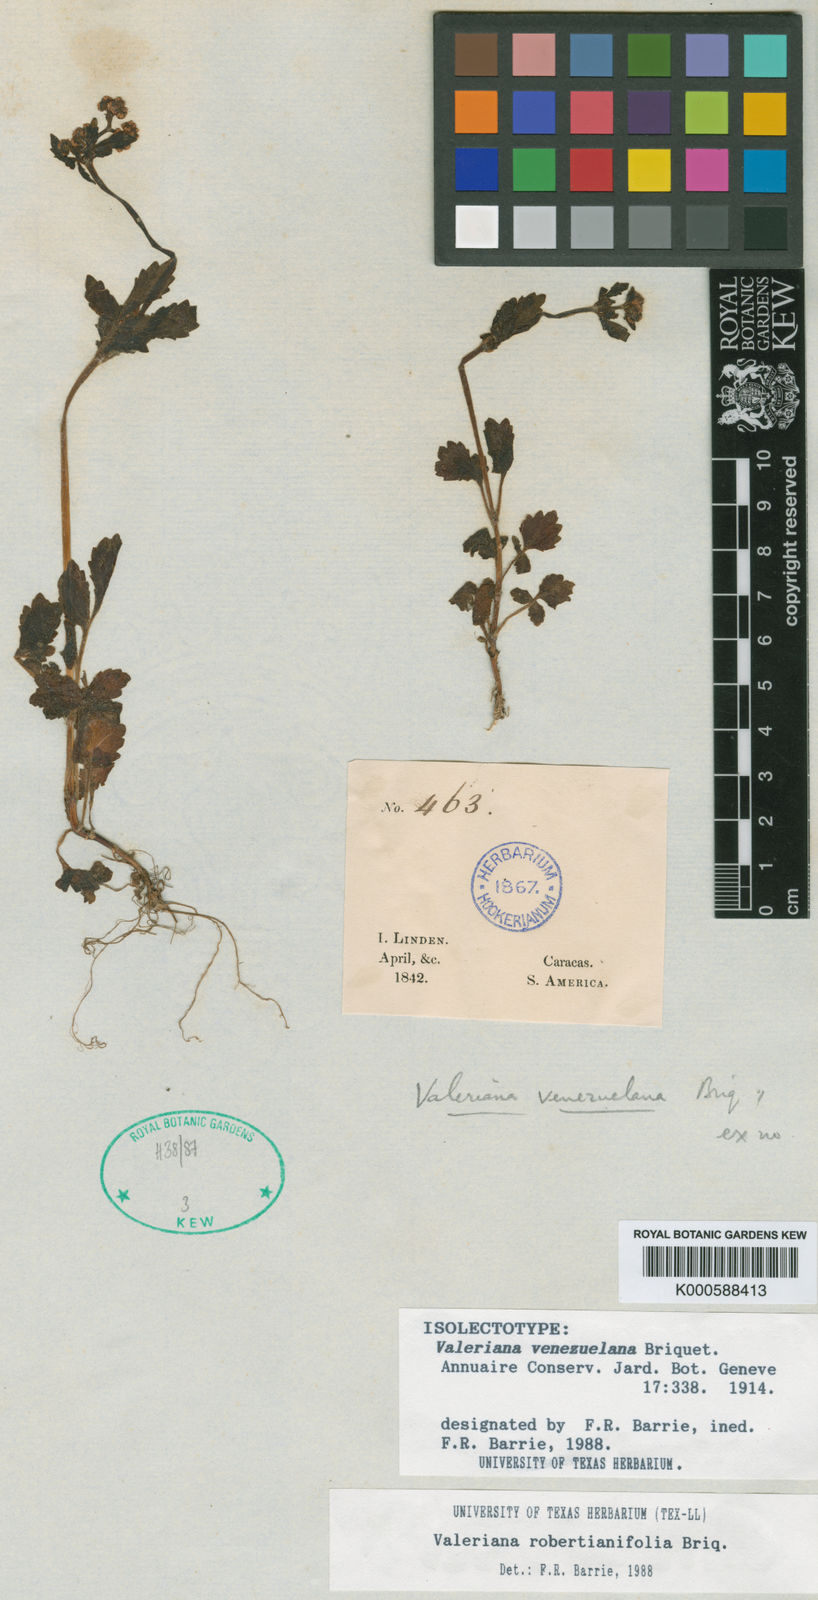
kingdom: Plantae
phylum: Tracheophyta
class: Magnoliopsida
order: Dipsacales
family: Caprifoliaceae
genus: Valeriana
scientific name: Valeriana robertianifolia
